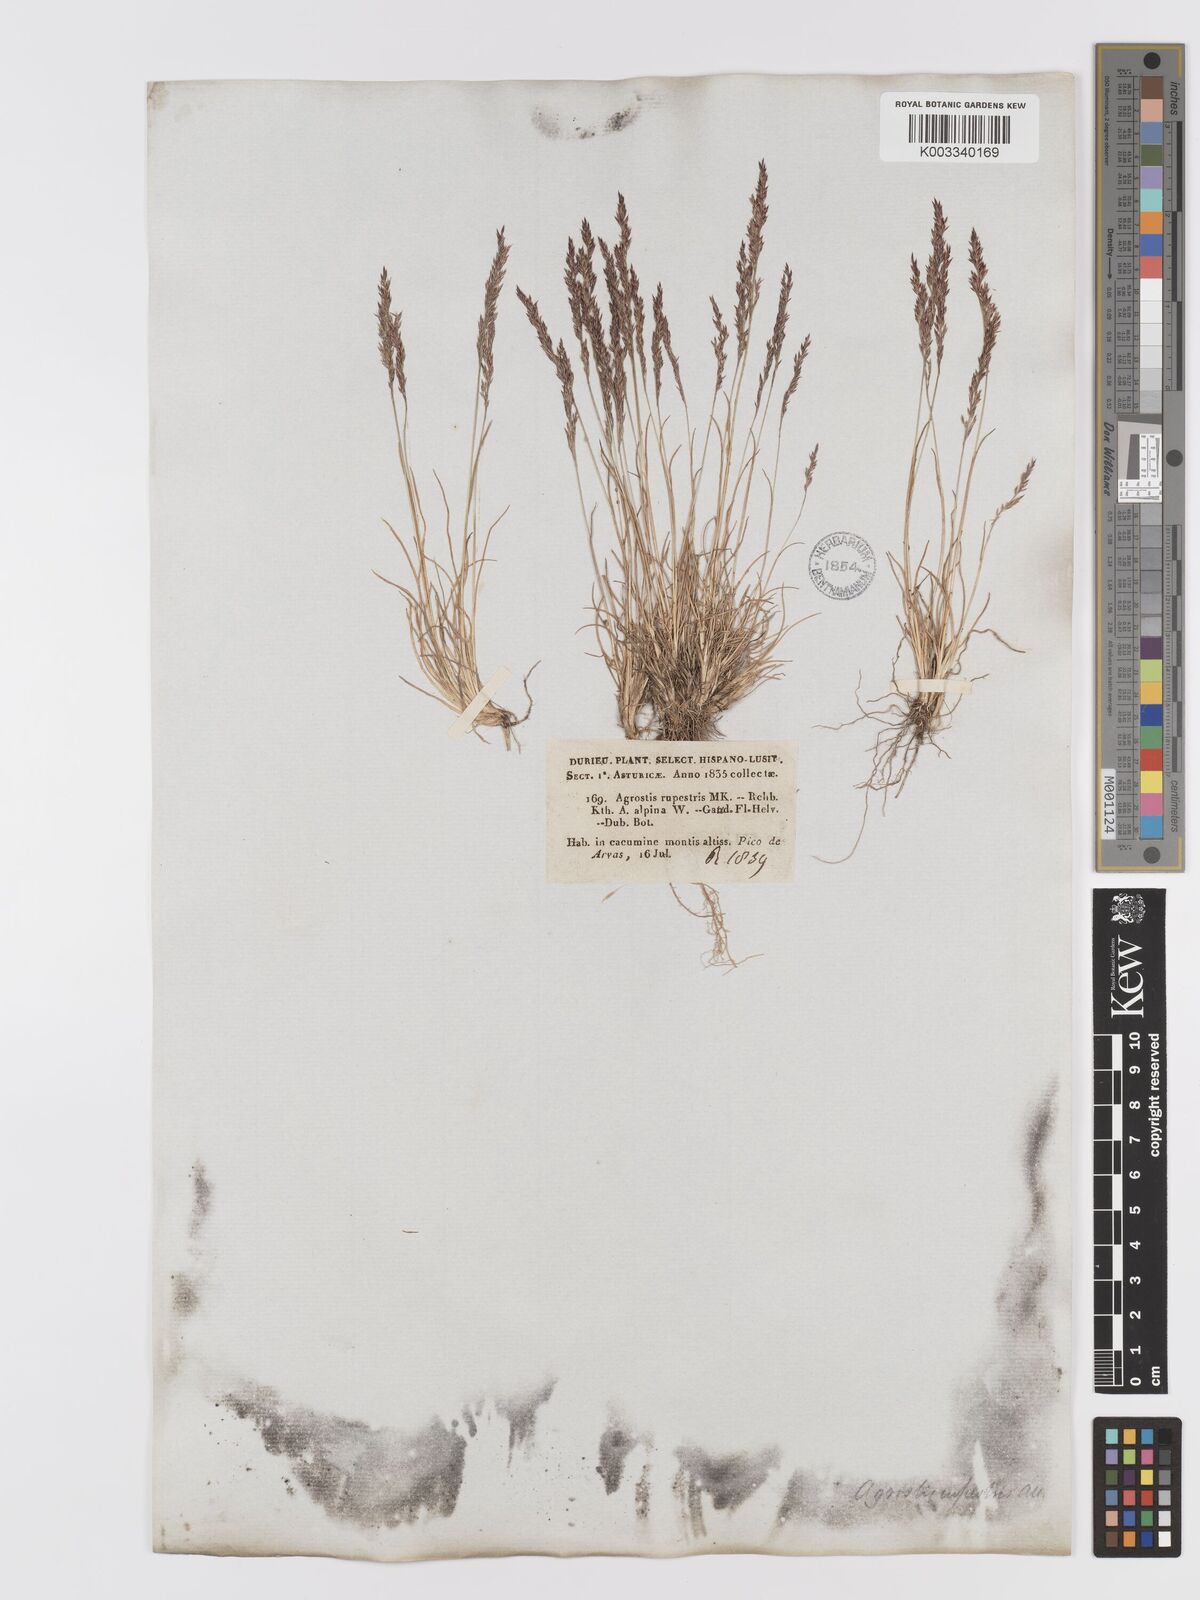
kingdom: Plantae
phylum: Tracheophyta
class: Liliopsida
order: Poales
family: Poaceae
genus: Agrostis
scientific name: Agrostis rupestris
